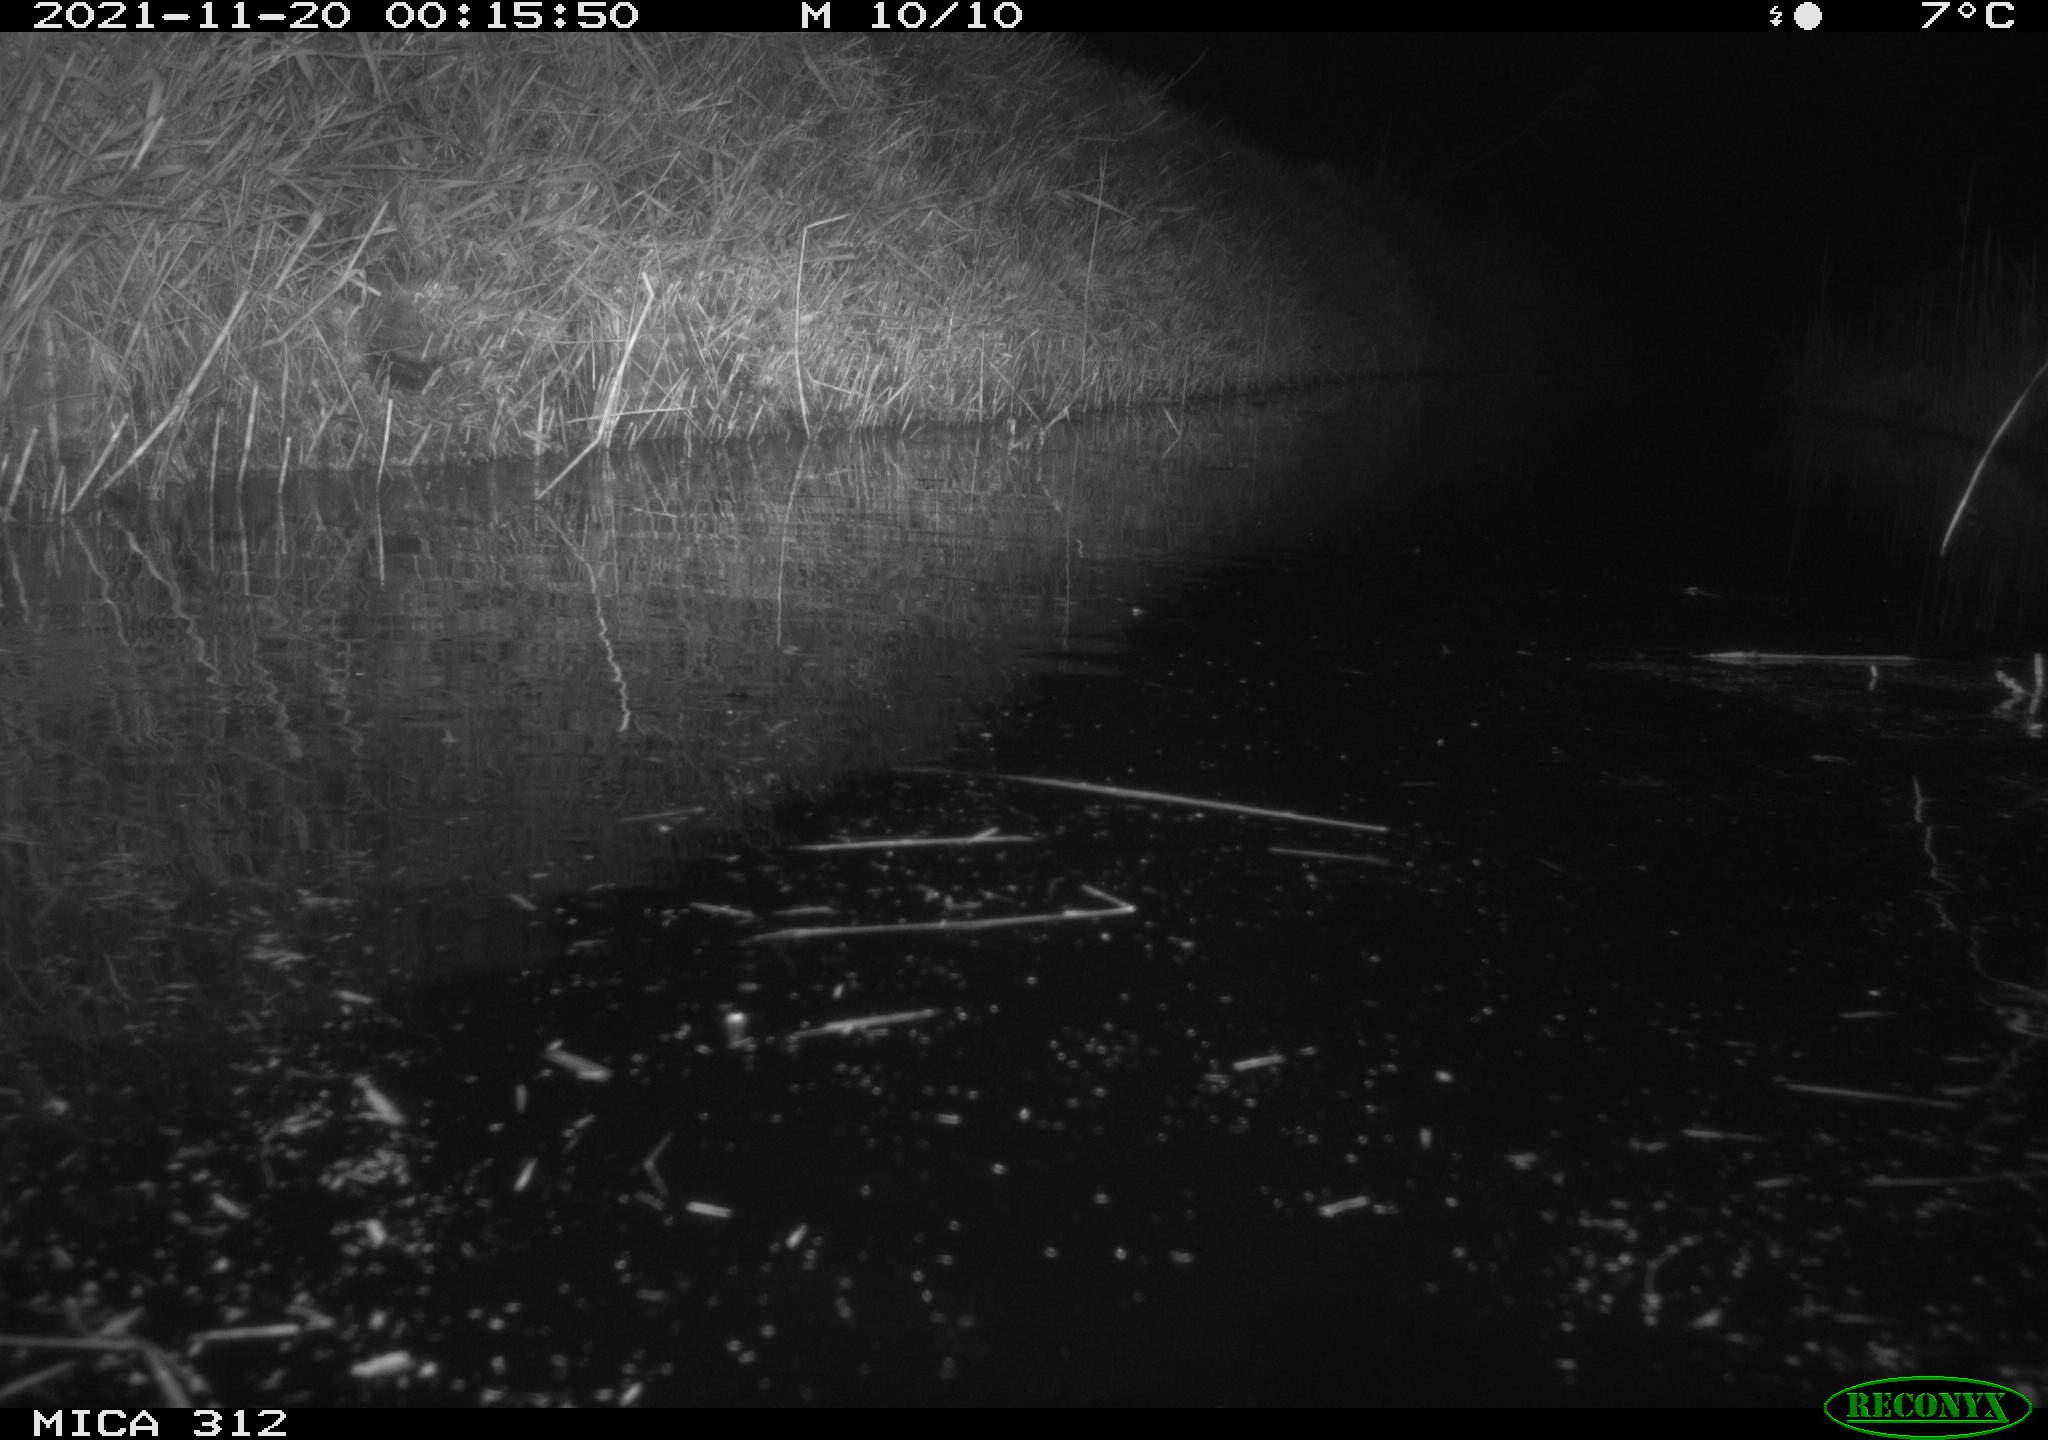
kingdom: Animalia
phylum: Chordata
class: Mammalia
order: Rodentia
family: Muridae
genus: Rattus
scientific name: Rattus norvegicus
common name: Brown rat
